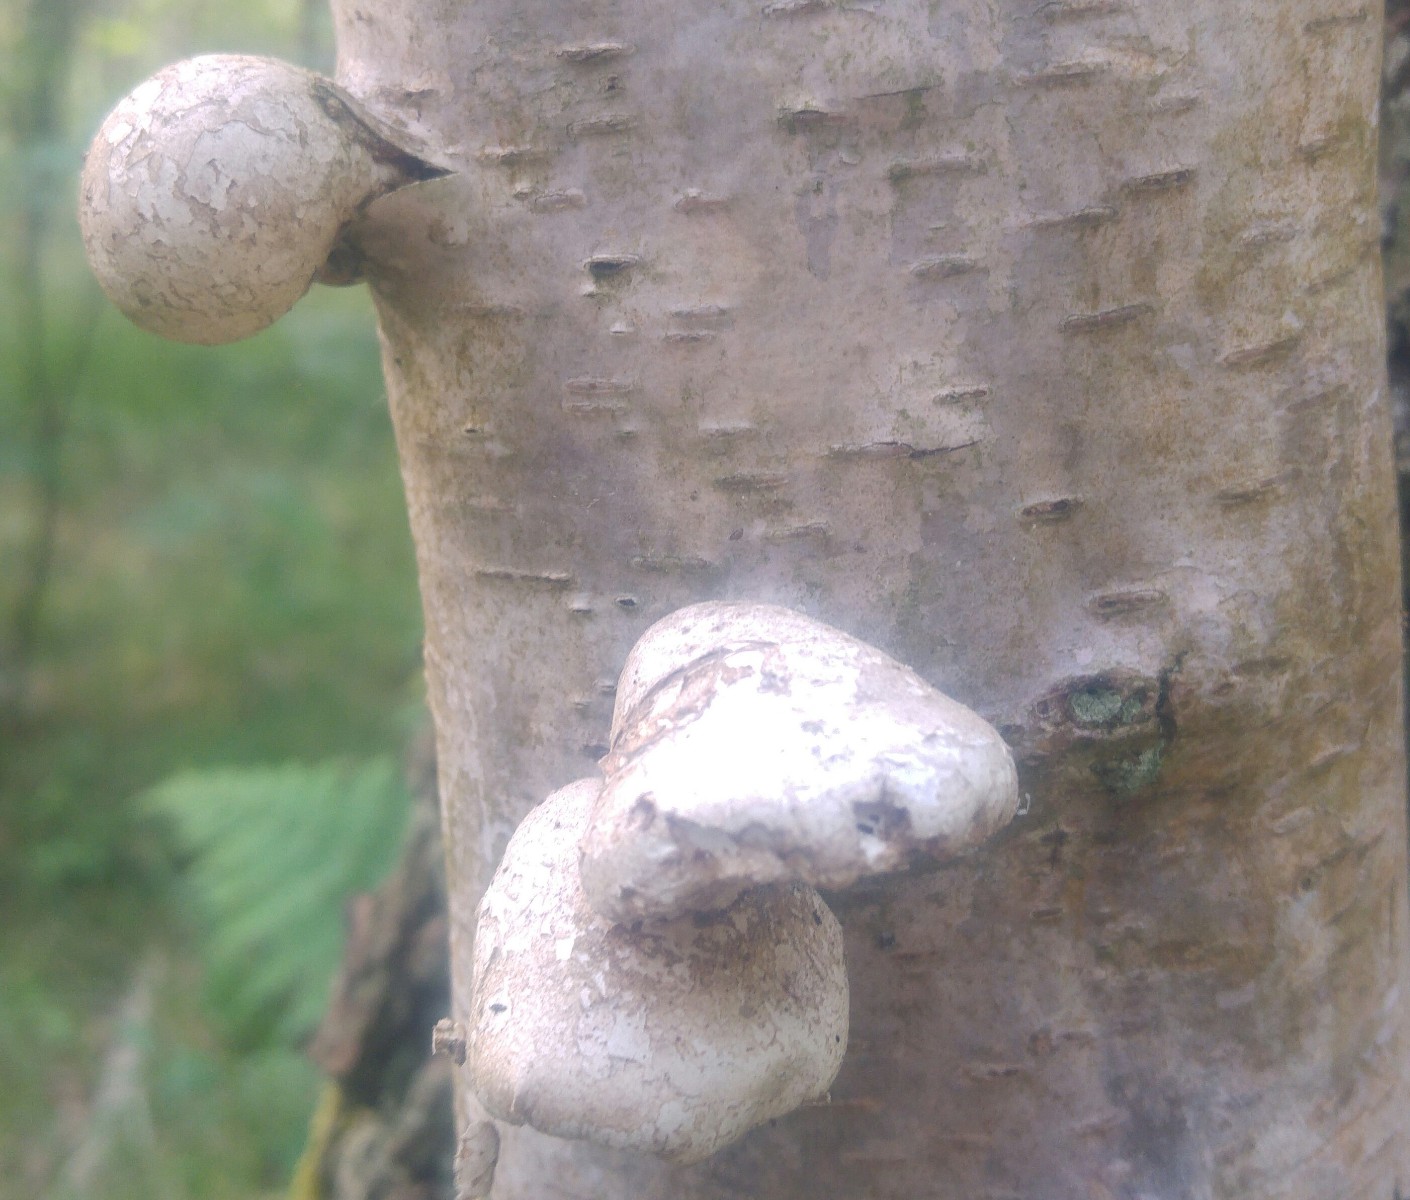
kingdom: Fungi
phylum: Basidiomycota
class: Agaricomycetes
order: Polyporales
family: Fomitopsidaceae
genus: Fomitopsis
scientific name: Fomitopsis betulina
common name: birkeporesvamp
